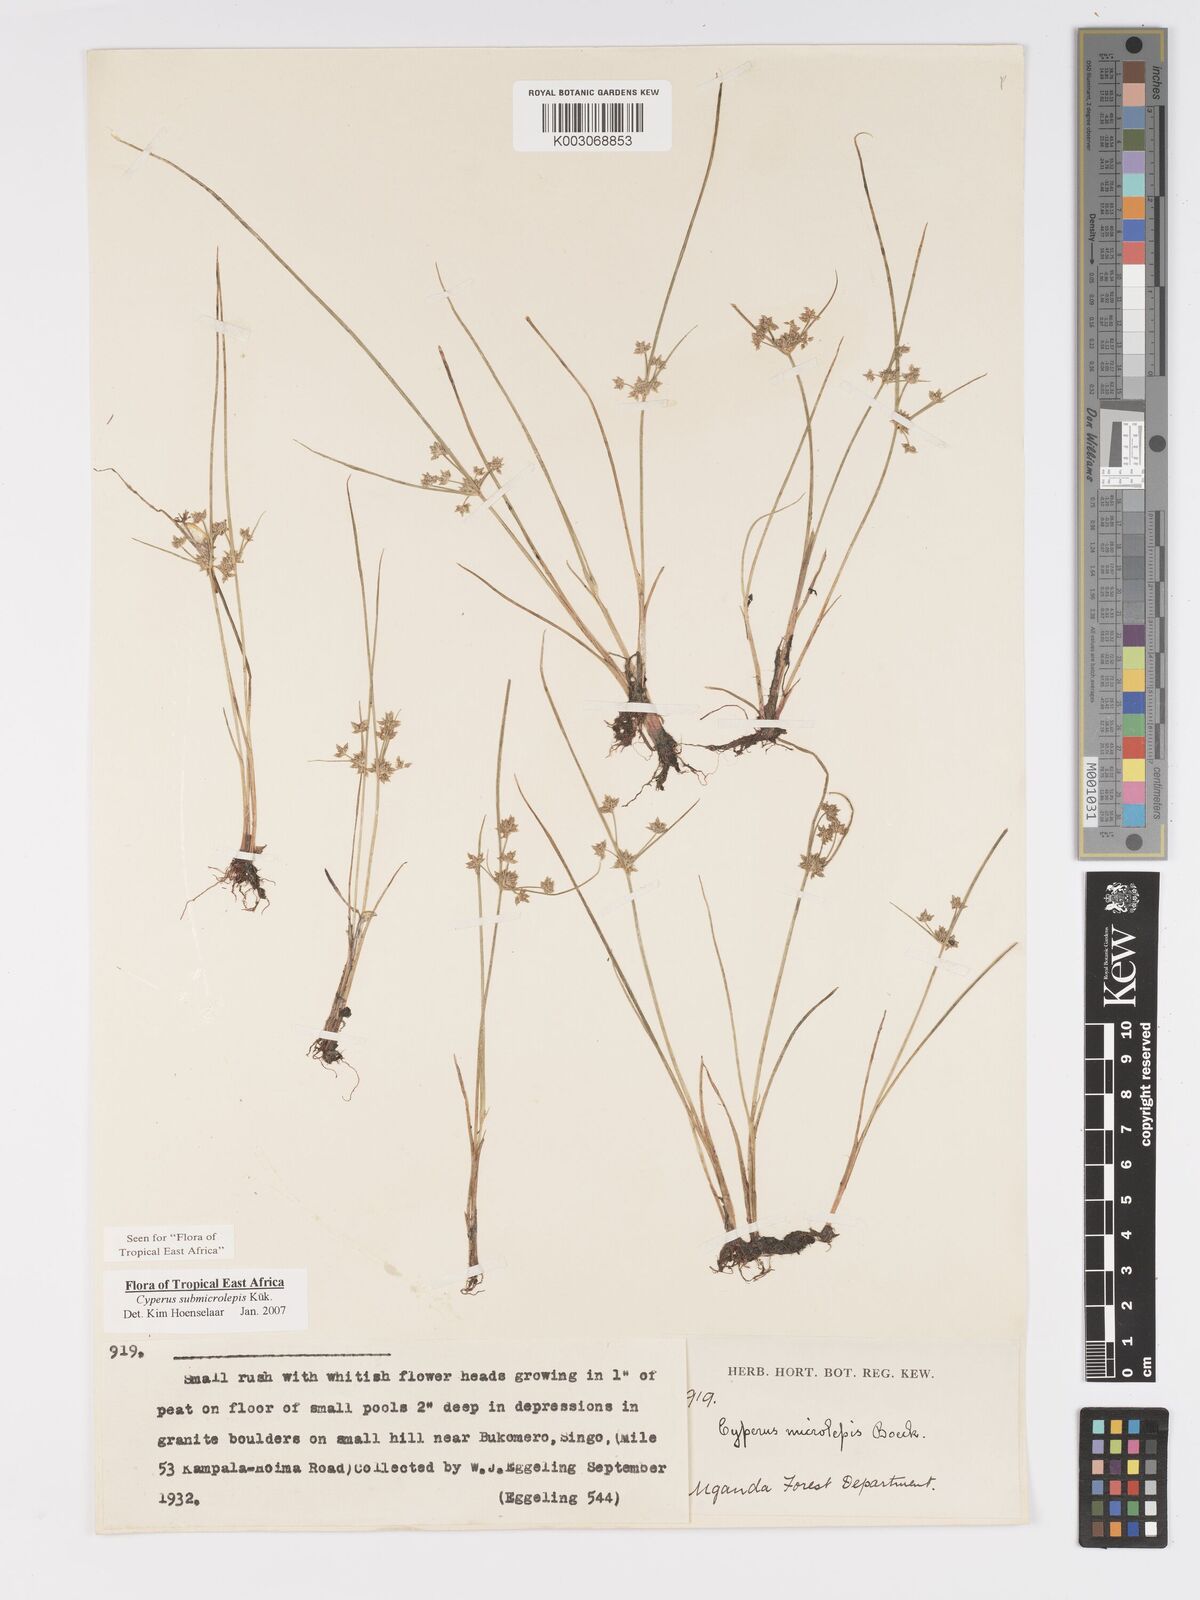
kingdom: Plantae
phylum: Tracheophyta
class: Liliopsida
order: Poales
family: Cyperaceae
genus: Cyperus
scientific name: Cyperus neoguinensis
